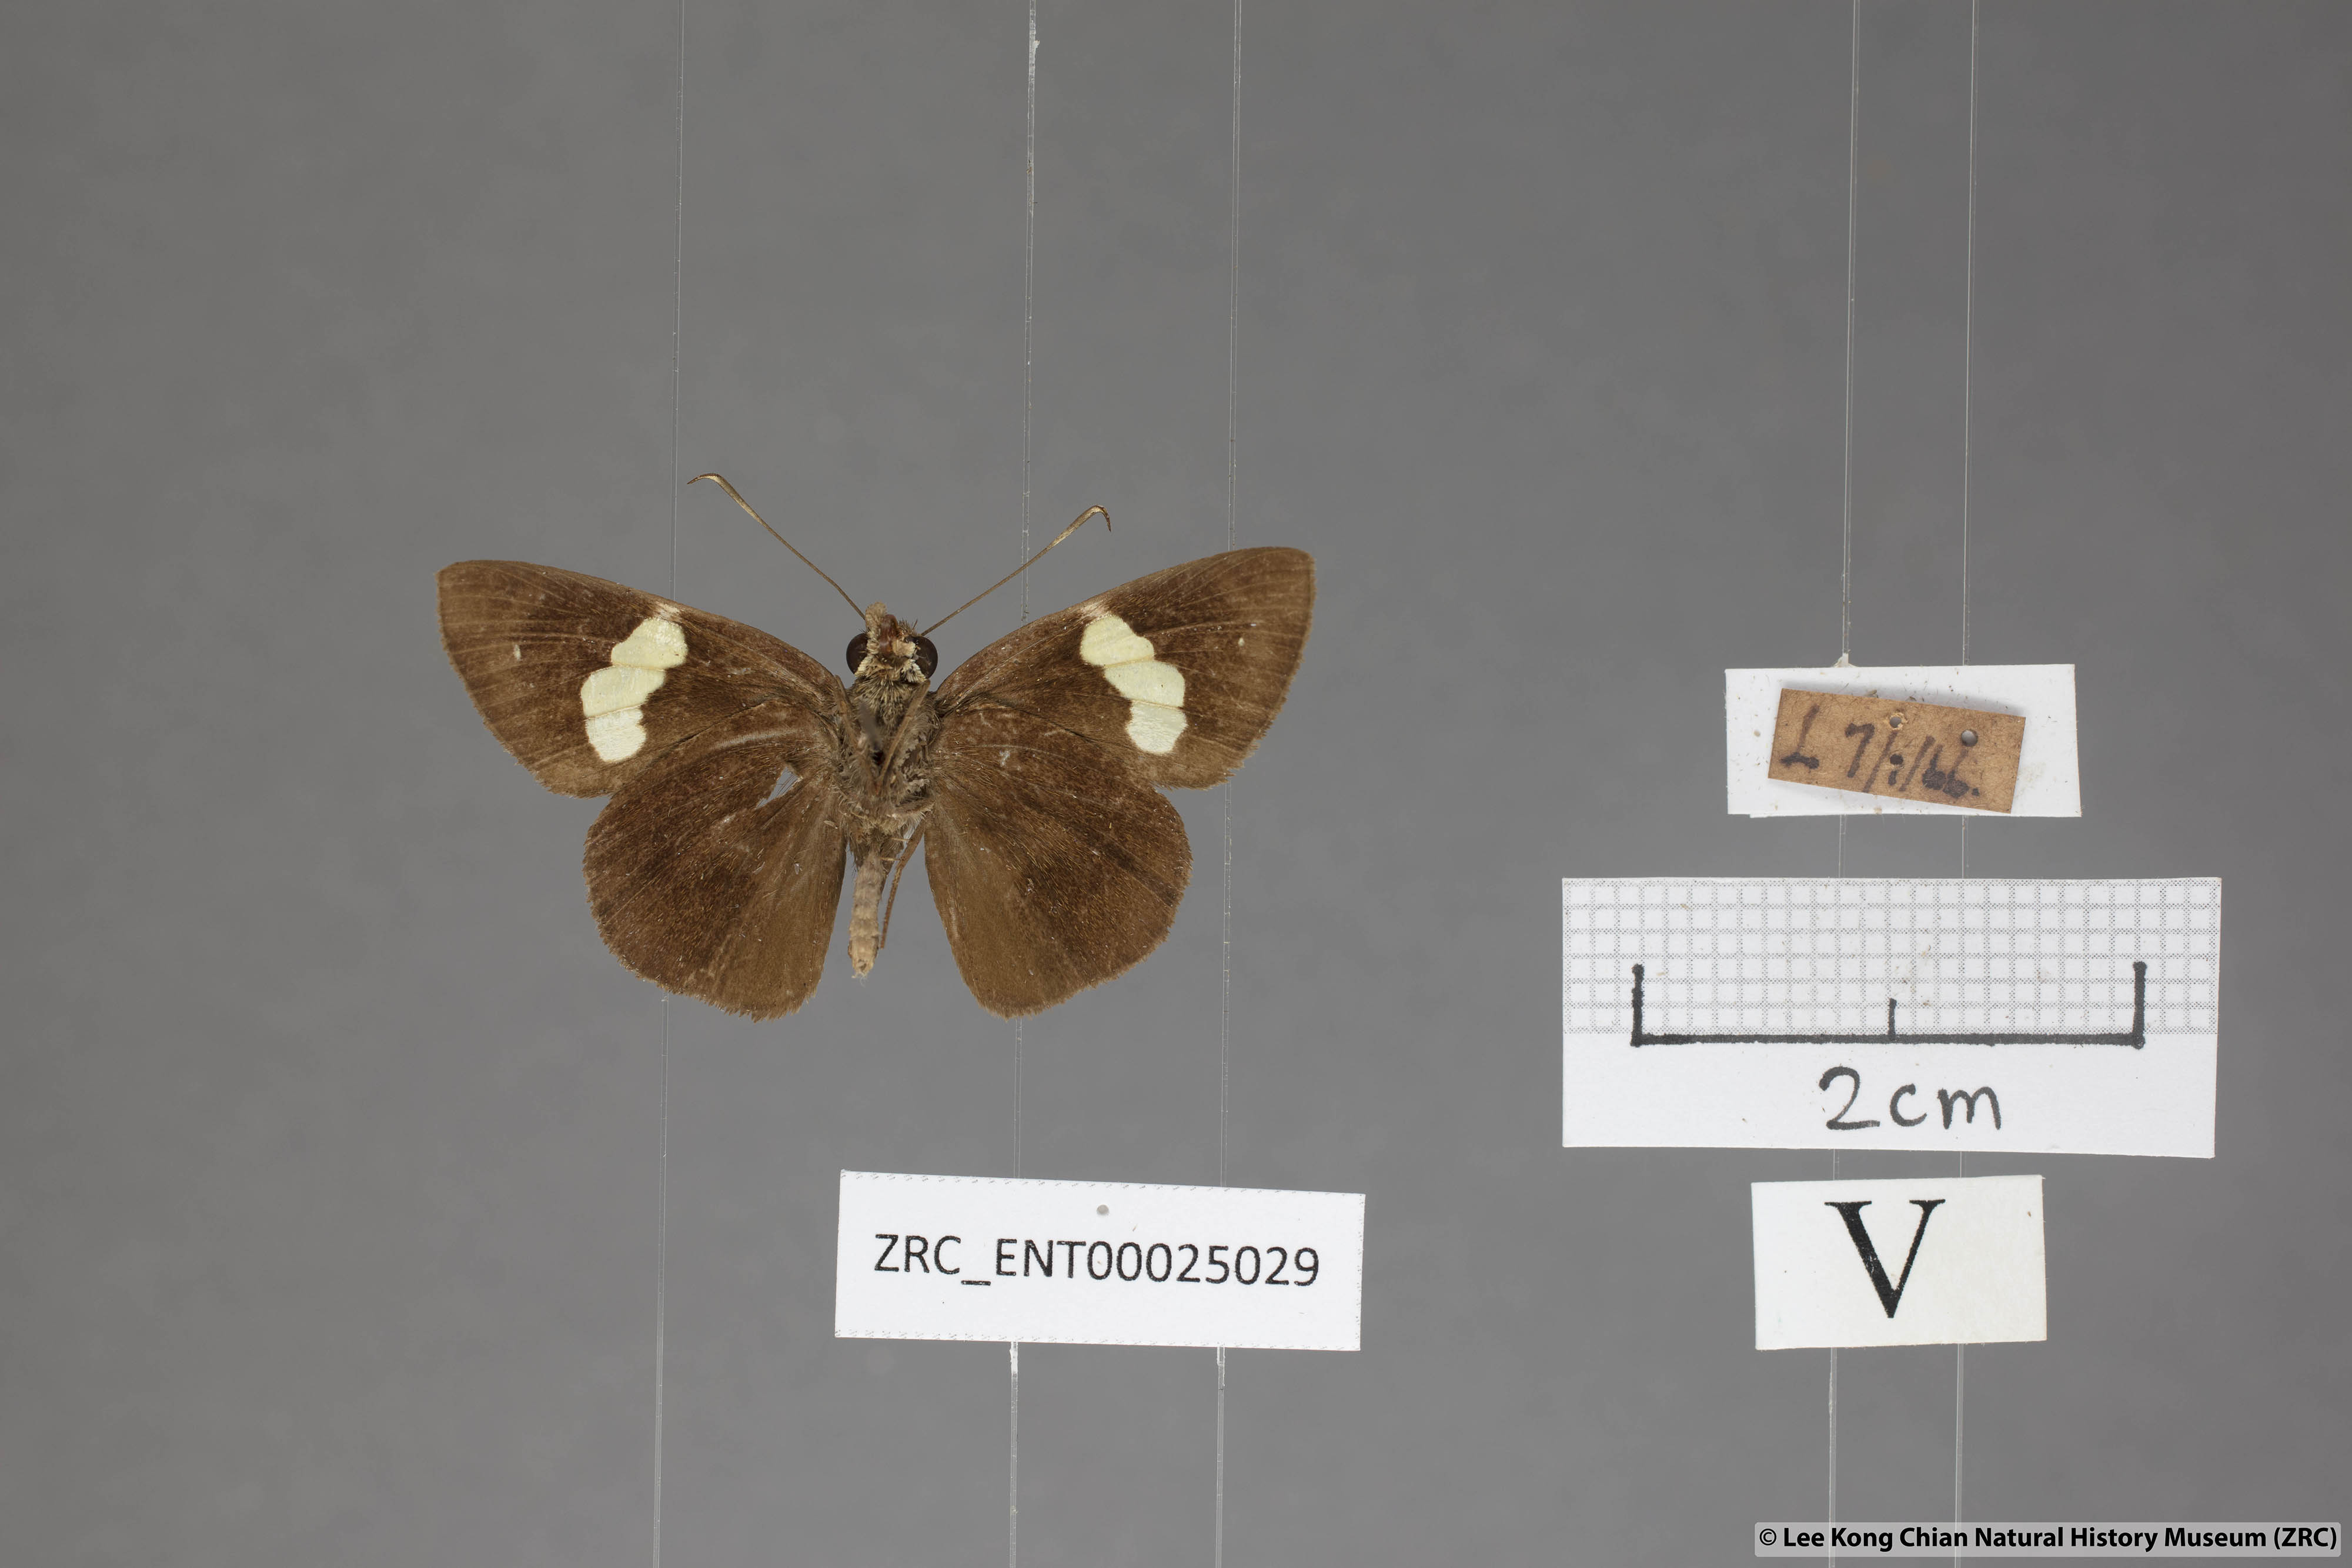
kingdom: Animalia
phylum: Arthropoda
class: Insecta
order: Lepidoptera
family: Hesperiidae
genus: Notocrypta
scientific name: Notocrypta paralysos
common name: Common banded demon
